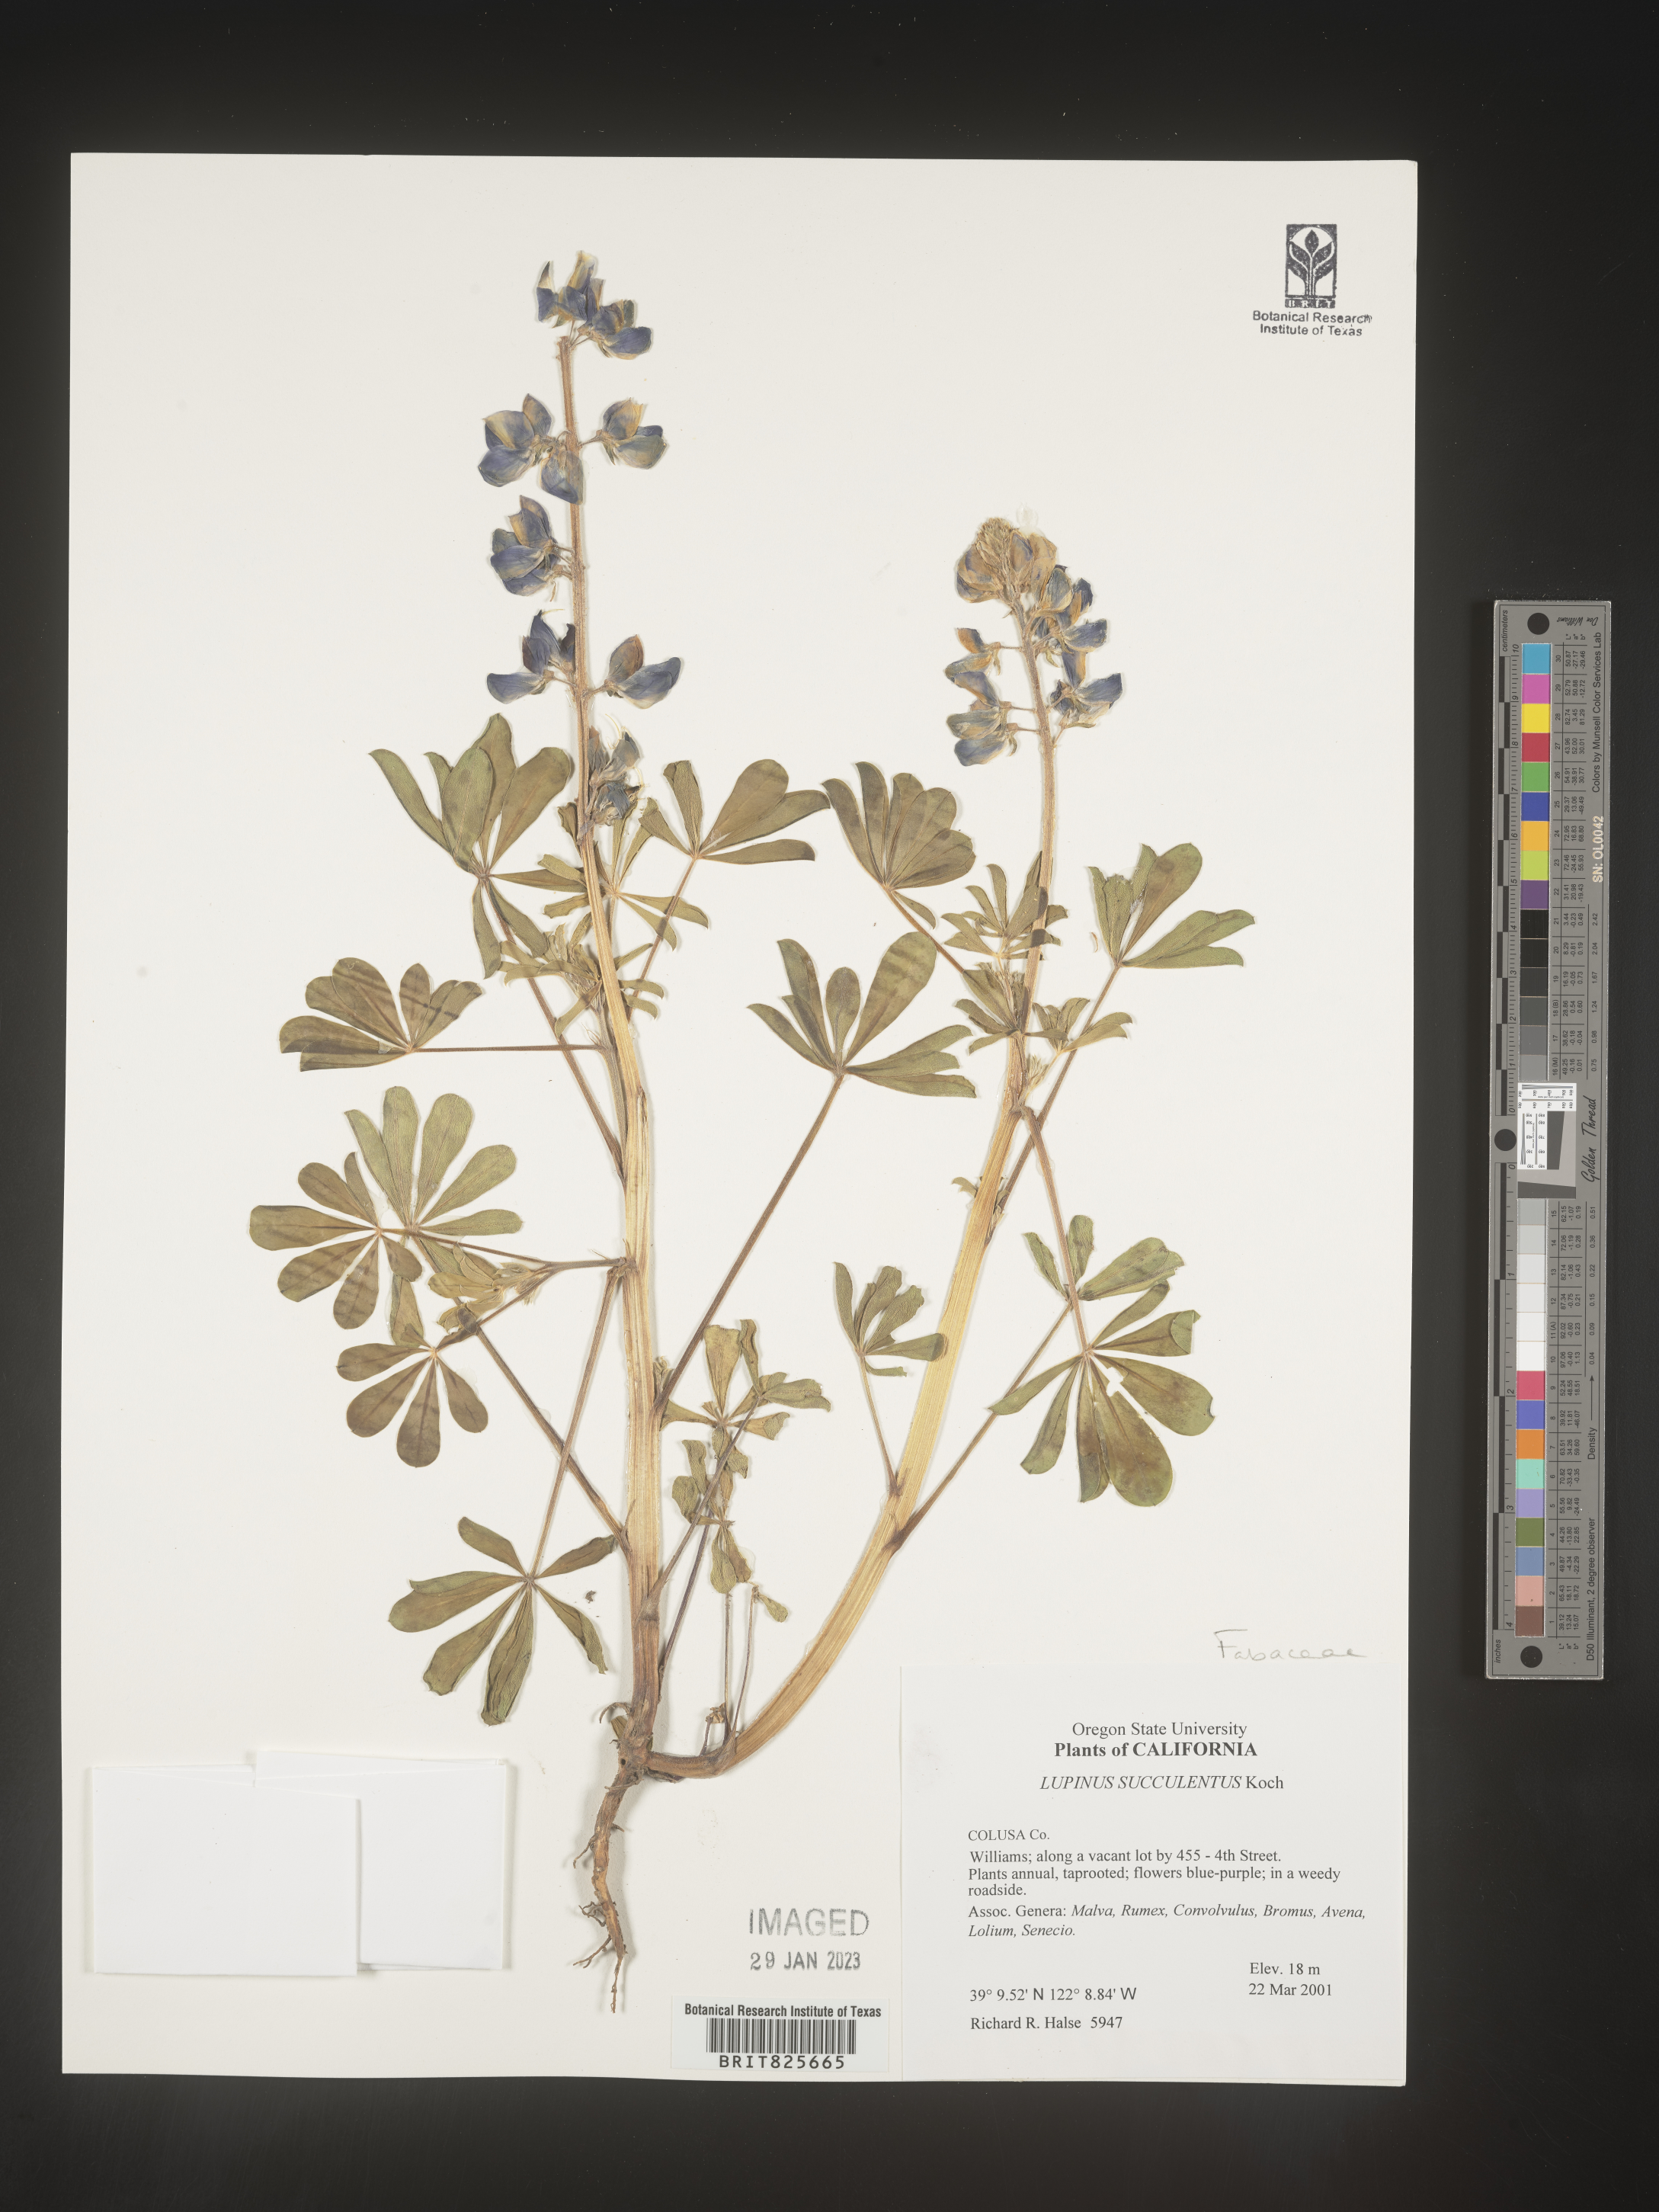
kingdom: Plantae
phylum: Tracheophyta
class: Magnoliopsida
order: Fabales
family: Fabaceae
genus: Lupinus
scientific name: Lupinus
